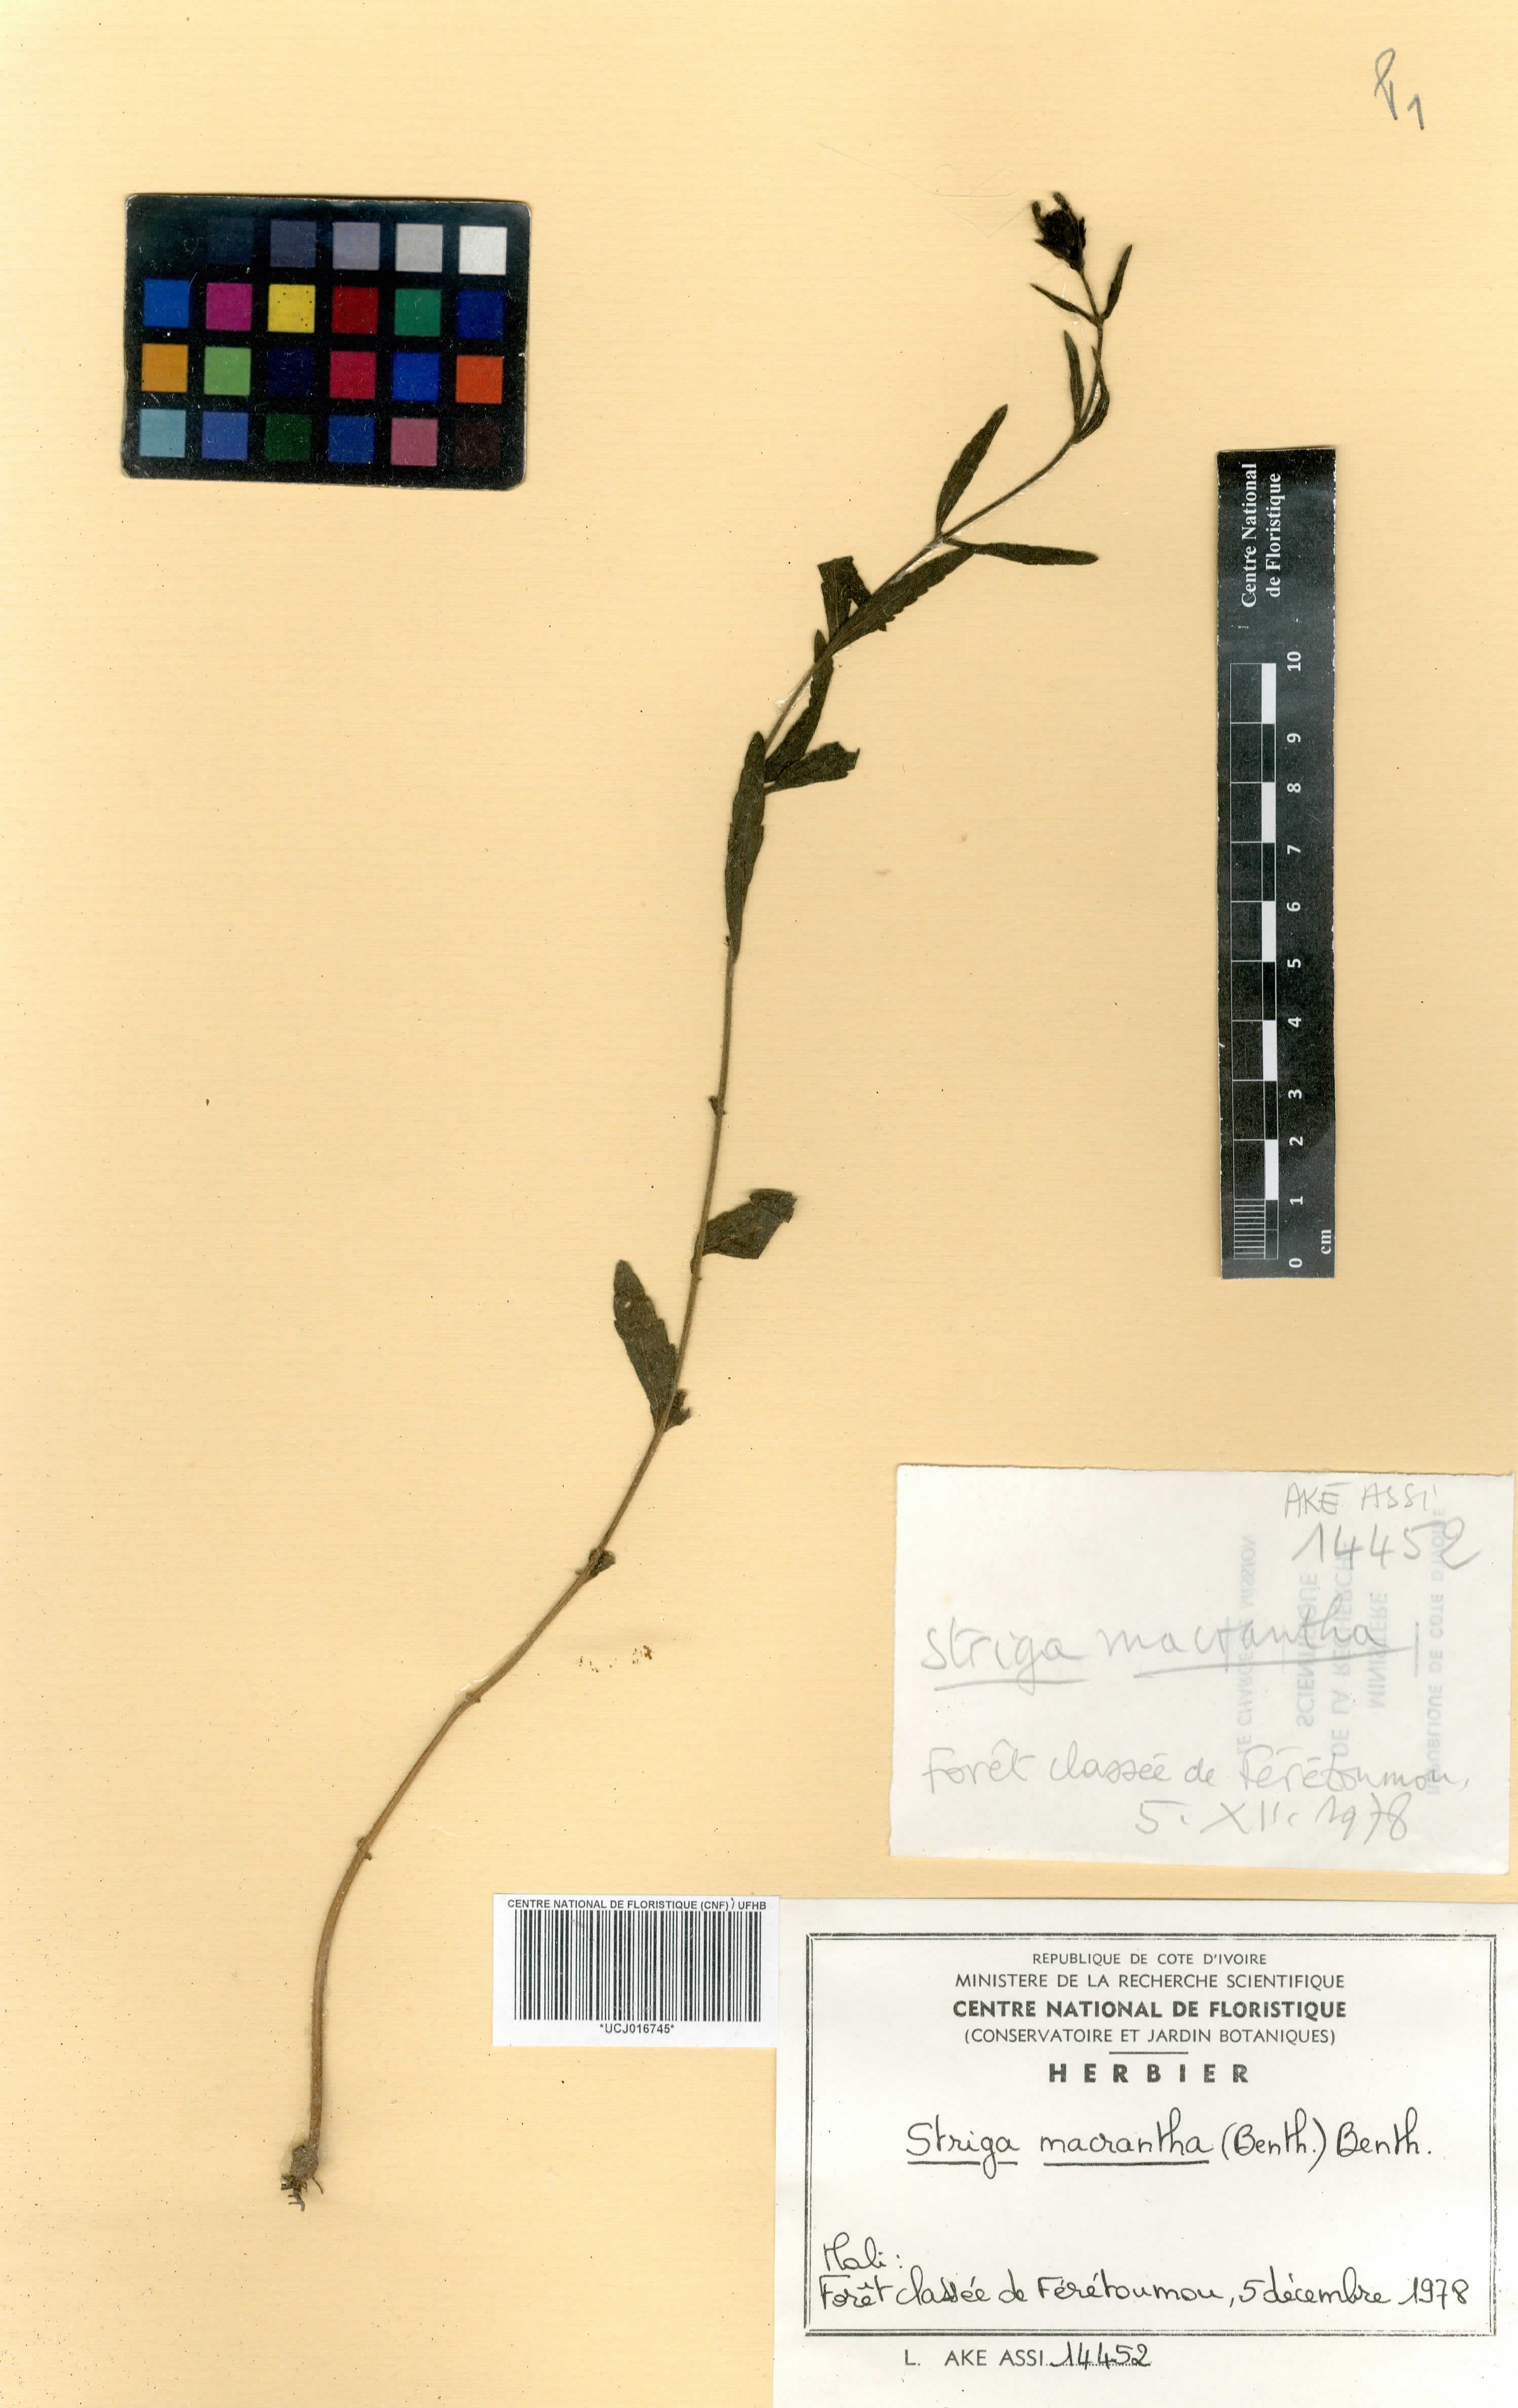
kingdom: Plantae
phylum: Tracheophyta
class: Magnoliopsida
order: Lamiales
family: Orobanchaceae
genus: Striga
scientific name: Striga macrantha
